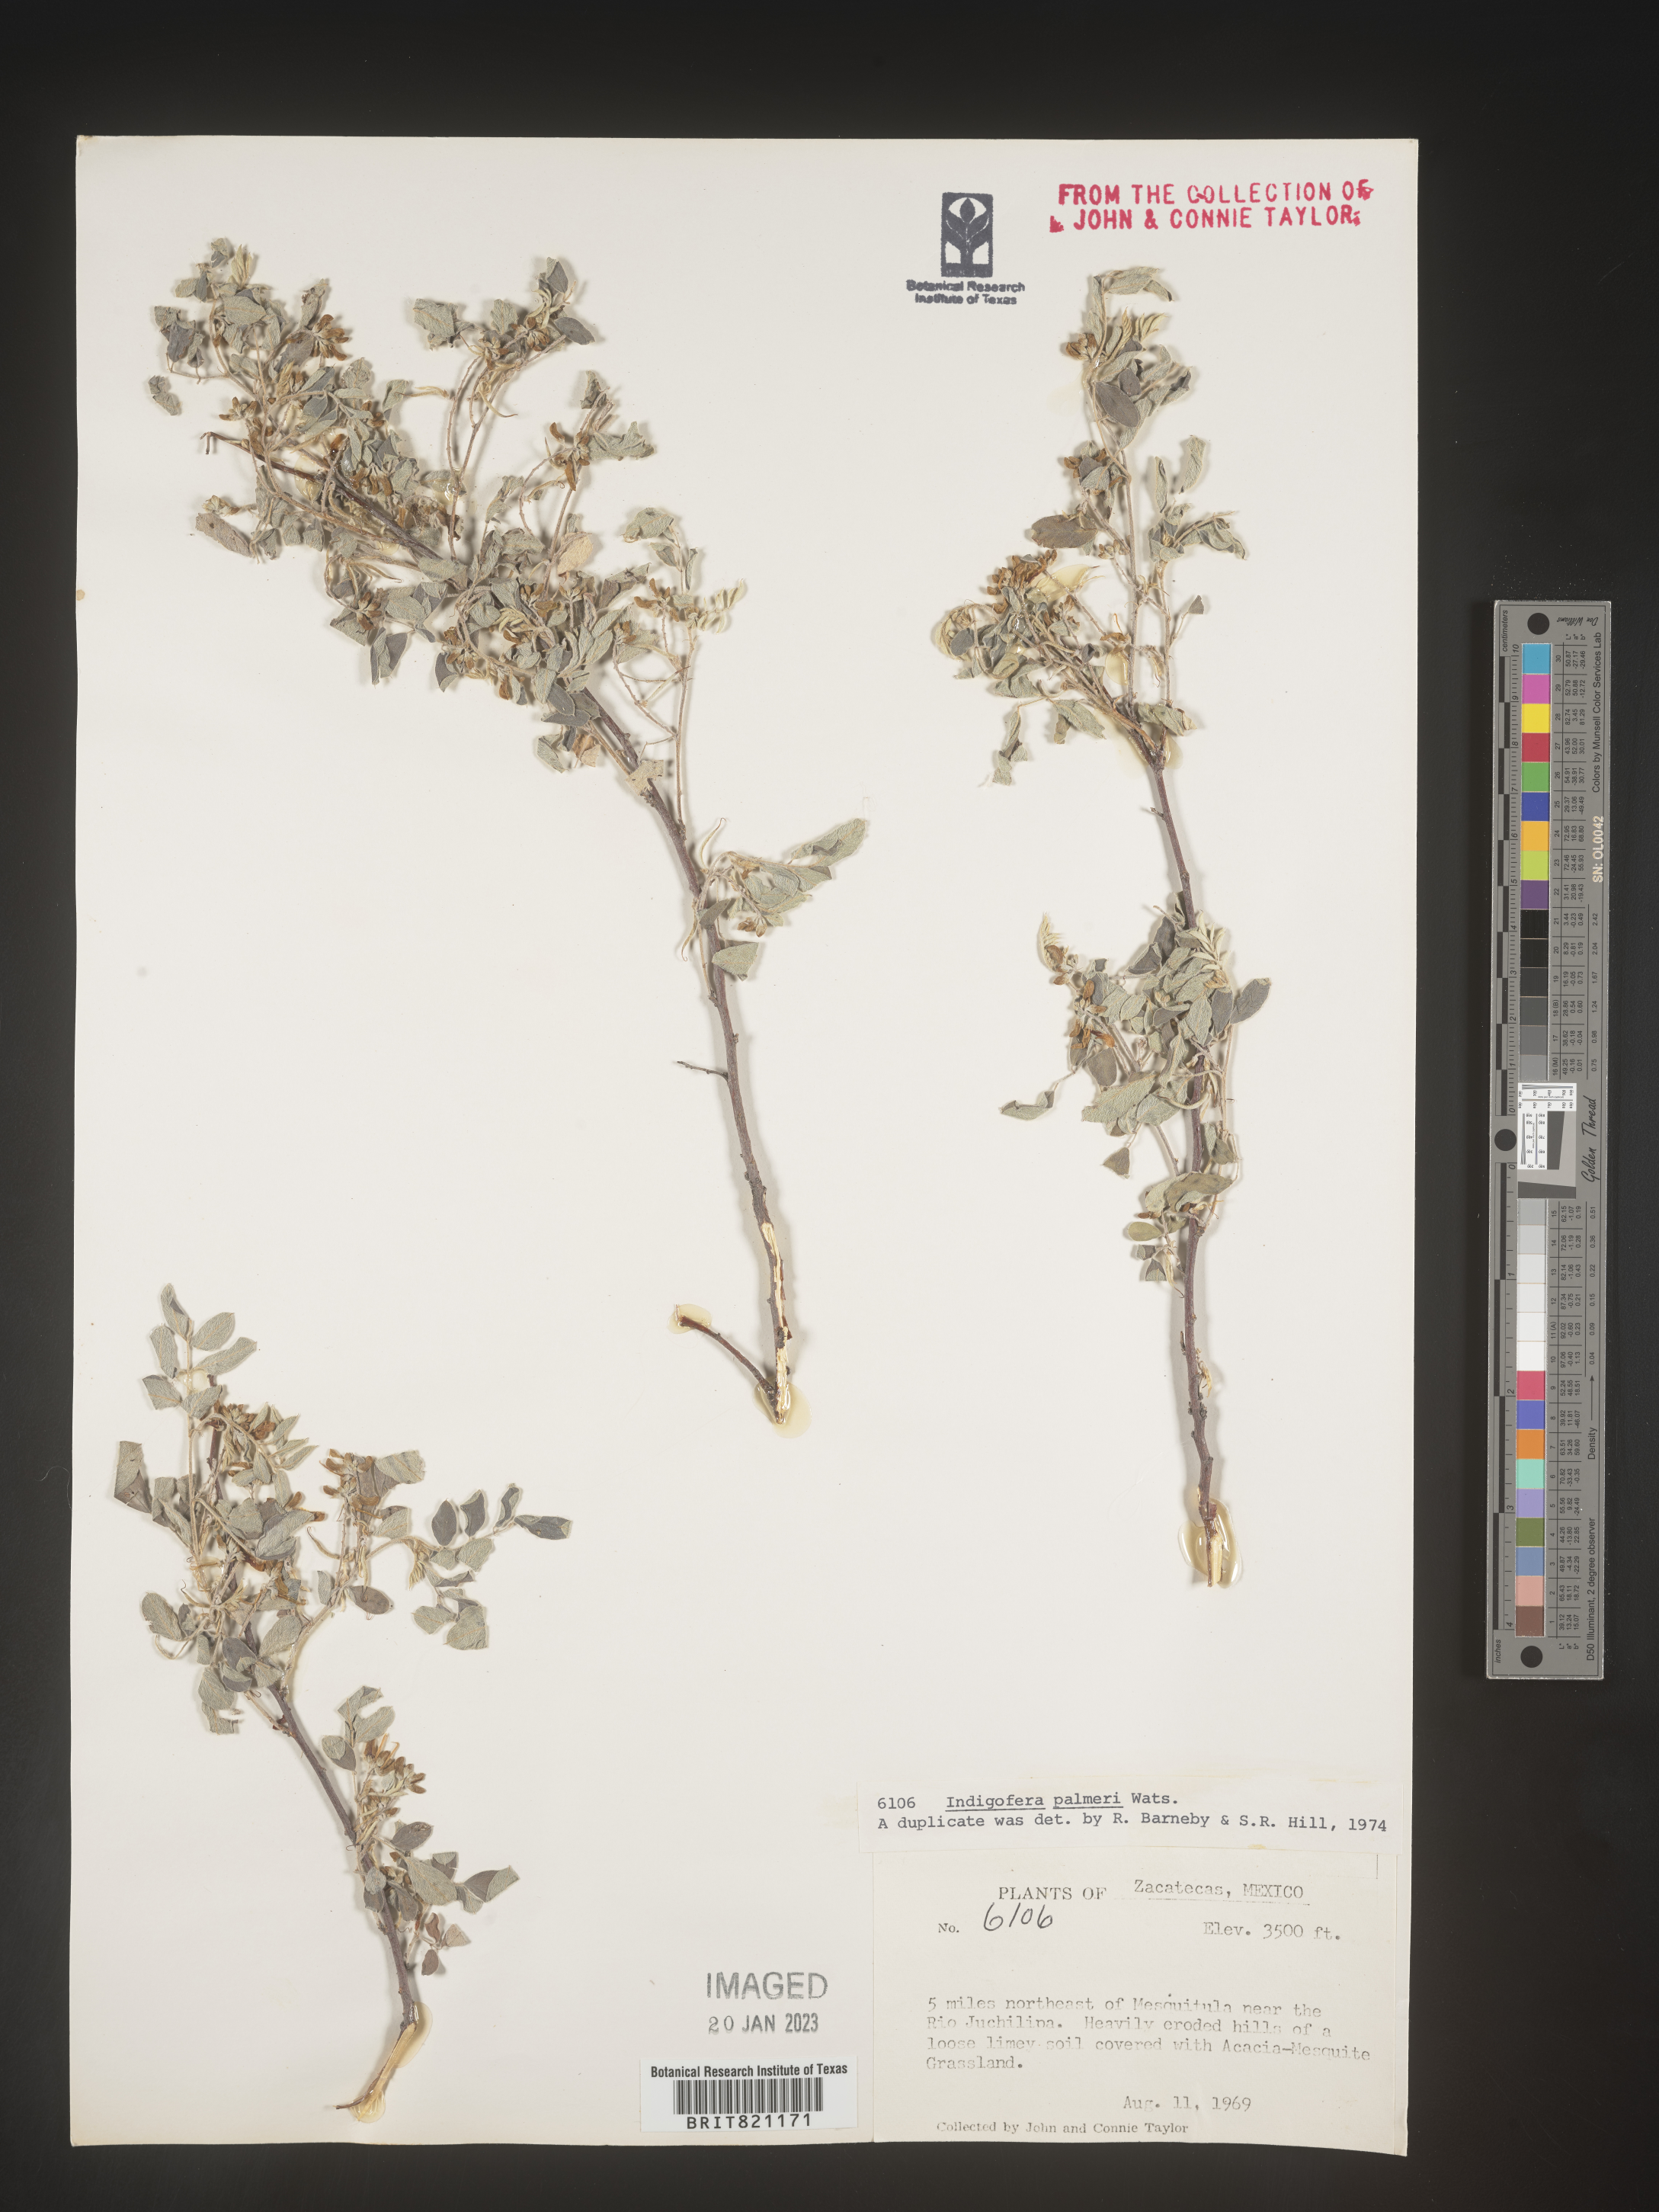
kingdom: Plantae
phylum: Tracheophyta
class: Magnoliopsida
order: Fabales
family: Fabaceae
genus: Indigofera
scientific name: Indigofera
